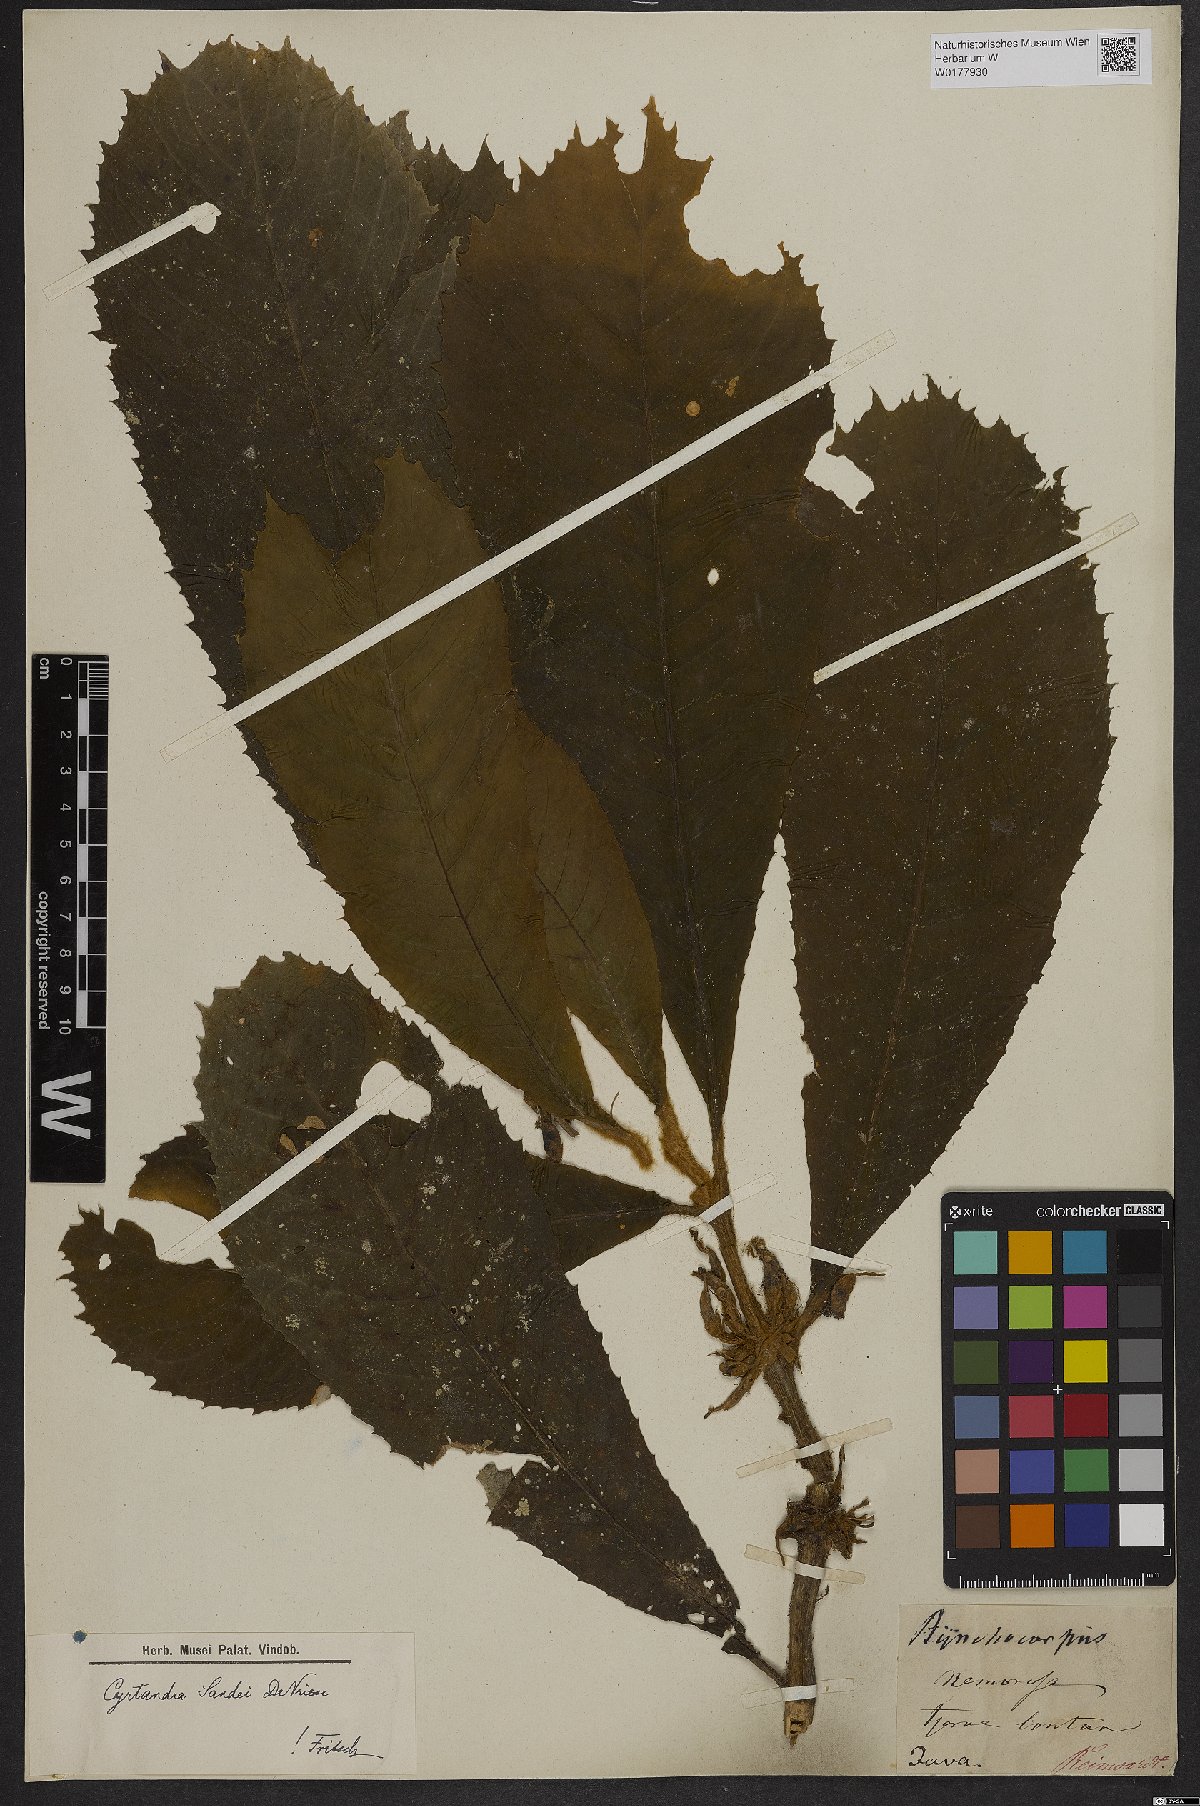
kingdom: Plantae
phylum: Tracheophyta
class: Magnoliopsida
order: Lamiales
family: Gesneriaceae
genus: Cyrtandra
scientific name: Cyrtandra
